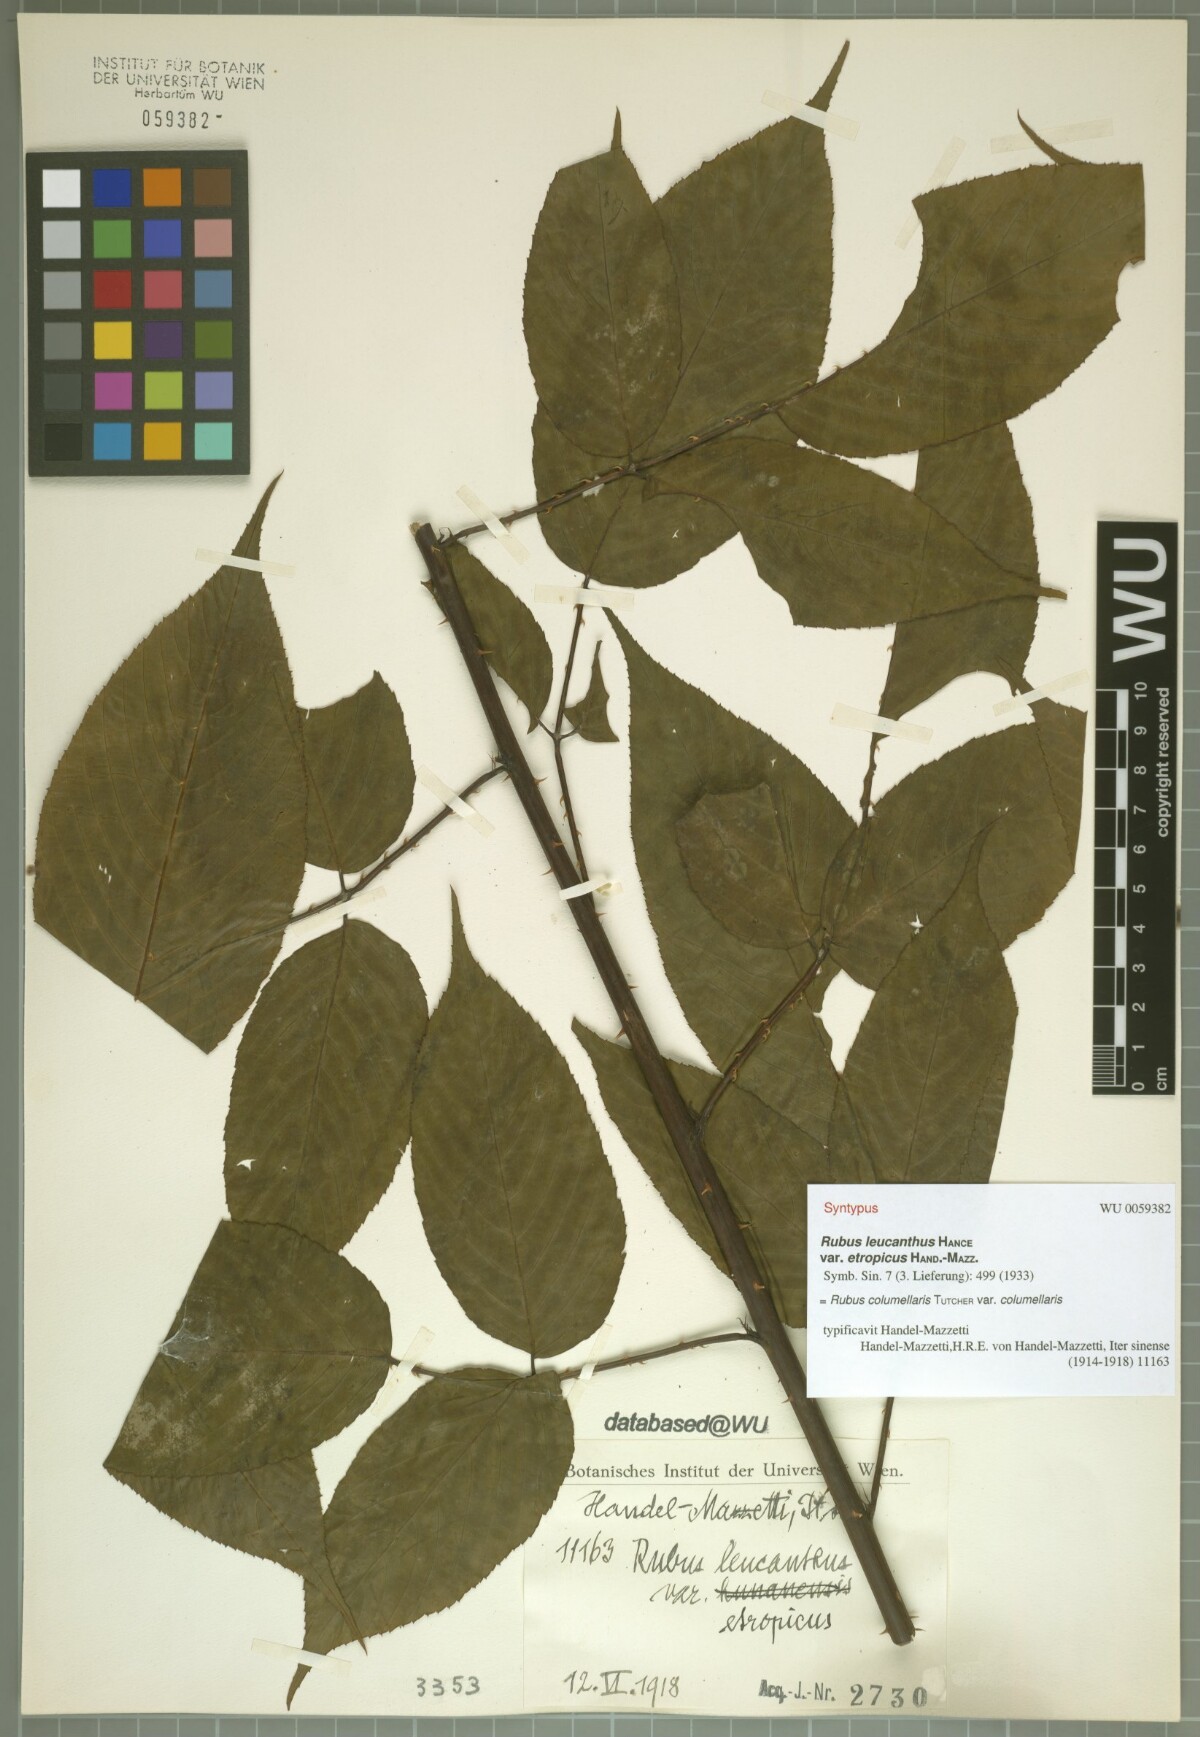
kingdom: Plantae
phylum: Tracheophyta
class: Magnoliopsida
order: Rosales
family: Rosaceae
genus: Rubus
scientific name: Rubus columellaris
